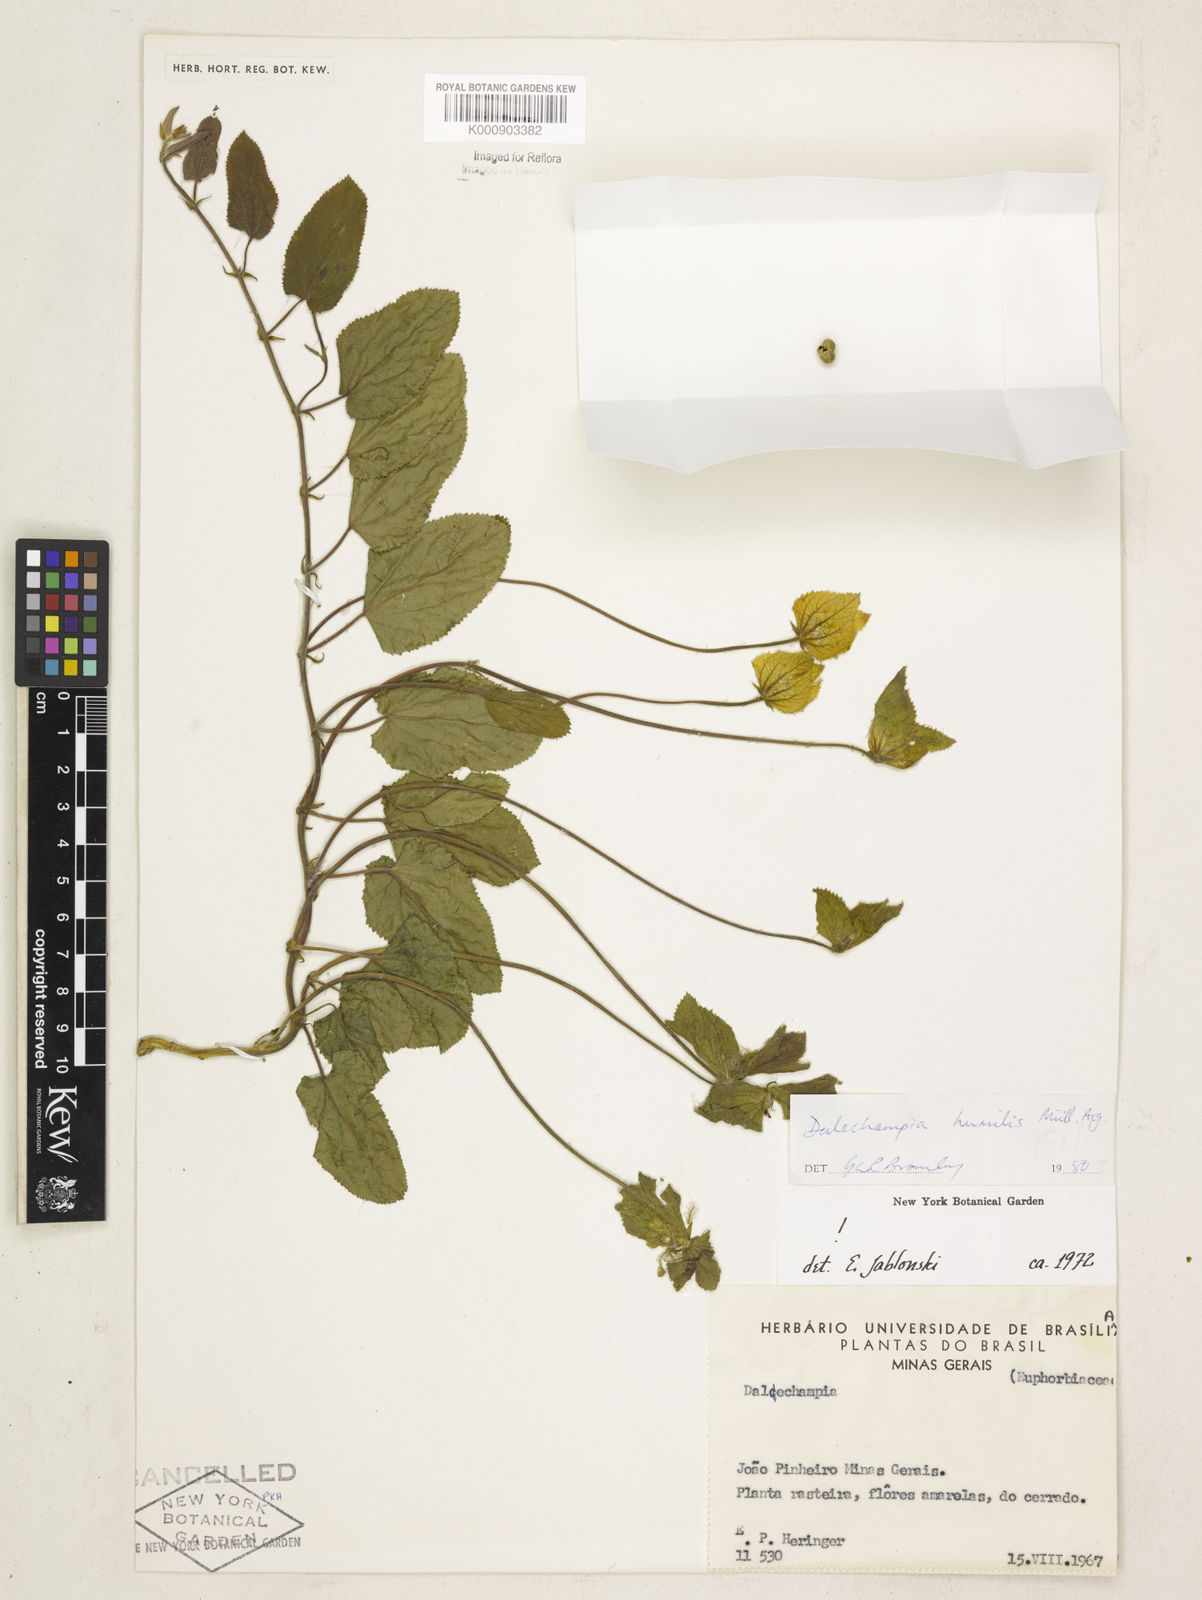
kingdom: Plantae
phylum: Tracheophyta
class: Magnoliopsida
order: Malpighiales
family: Euphorbiaceae
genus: Dalechampia
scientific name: Dalechampia
